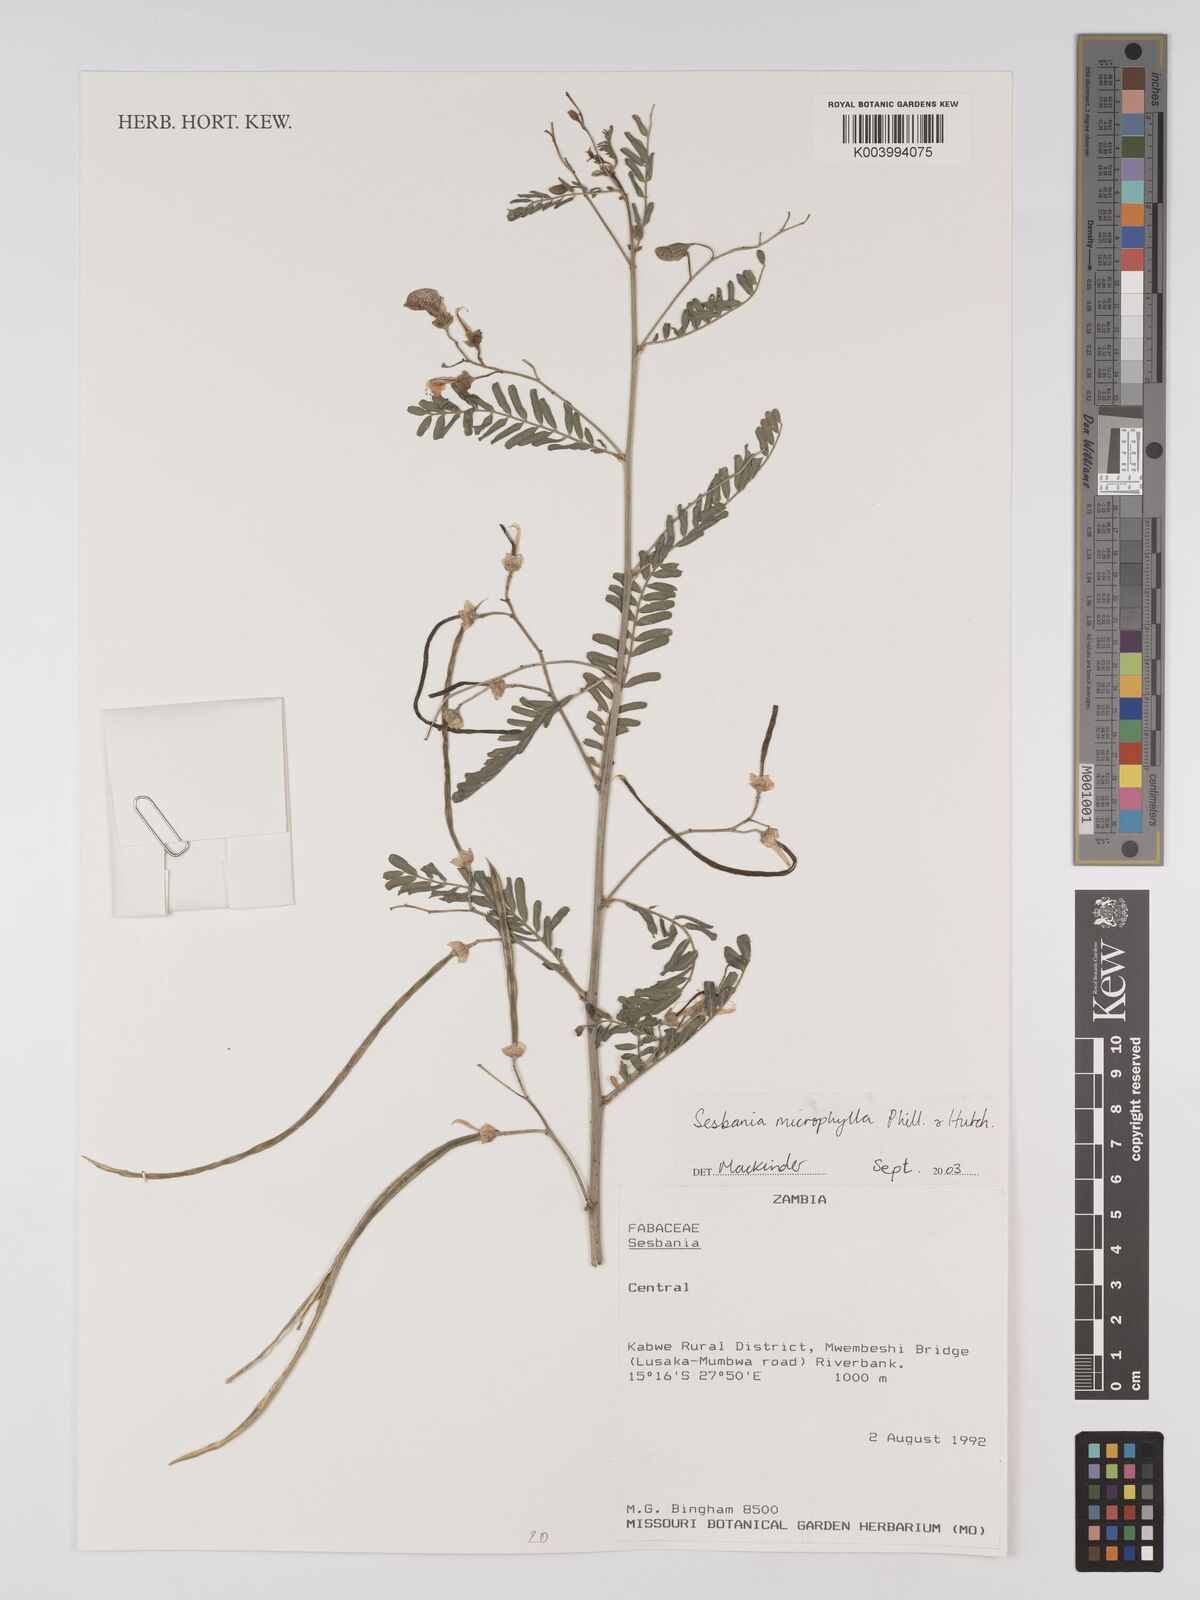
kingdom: Plantae
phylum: Tracheophyta
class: Magnoliopsida
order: Fabales
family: Fabaceae
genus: Sesbania
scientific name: Sesbania microphylla
